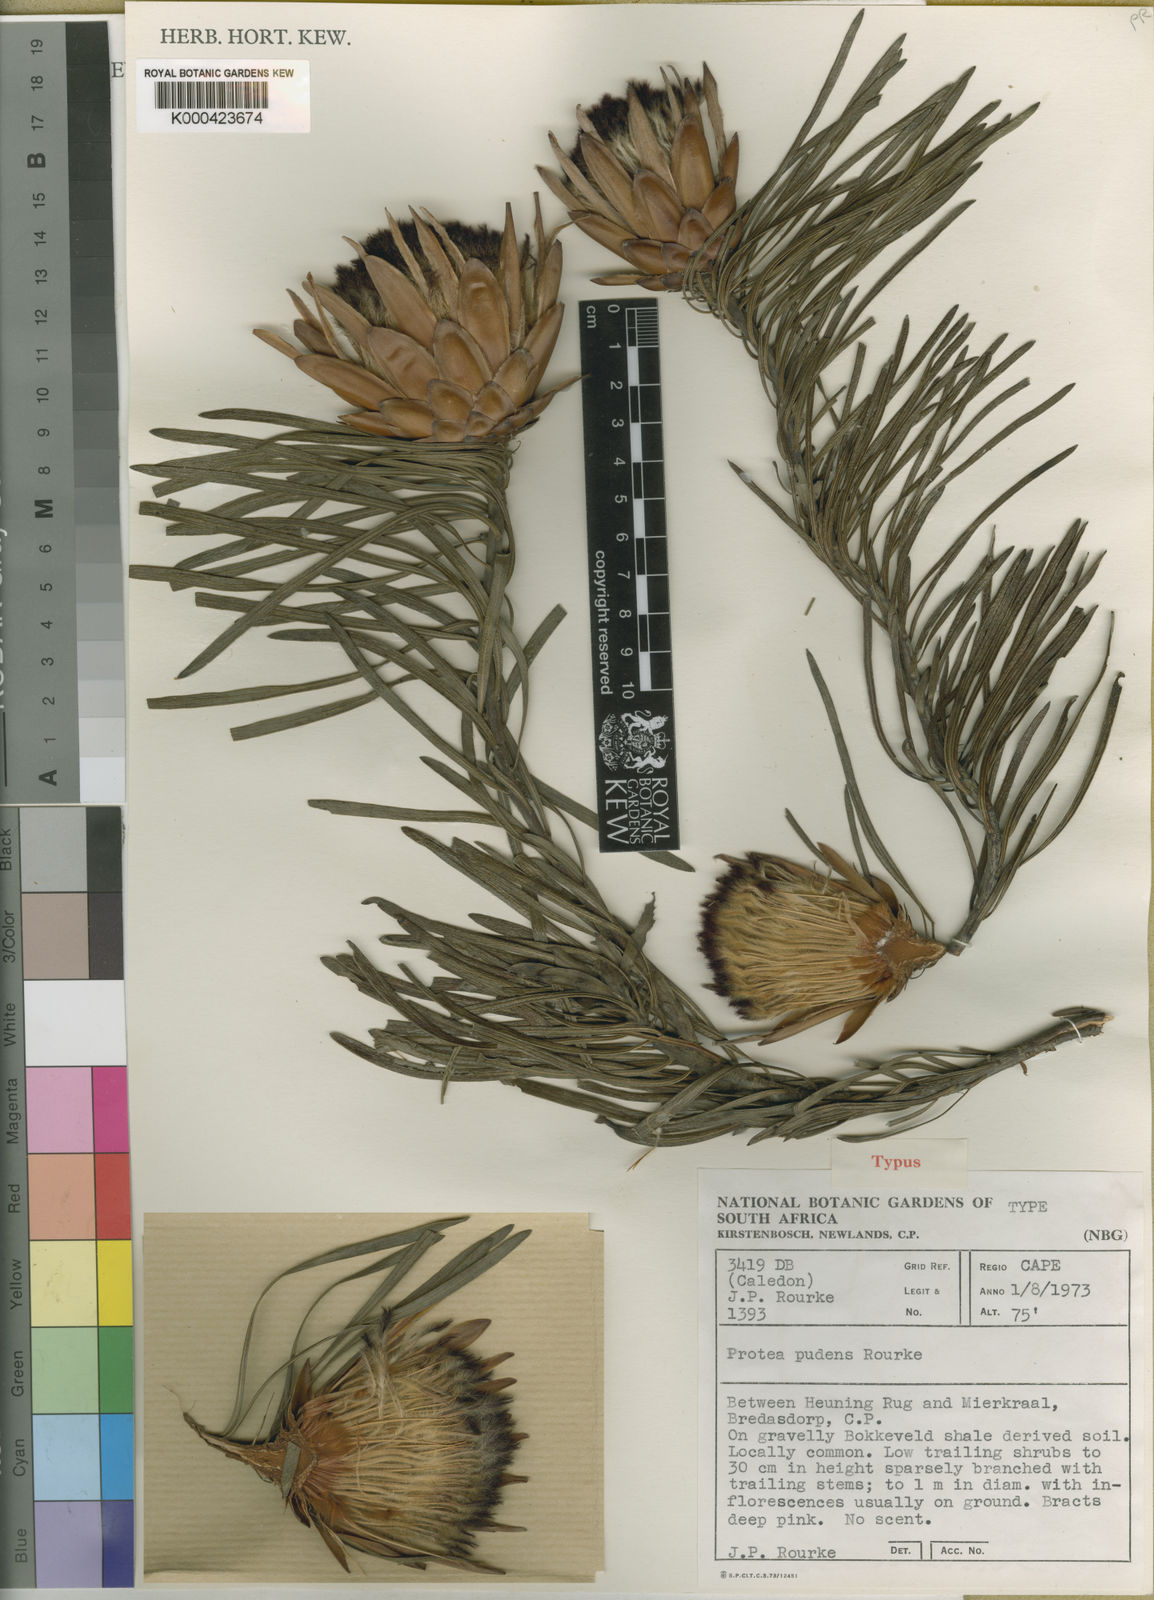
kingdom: Plantae
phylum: Tracheophyta
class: Magnoliopsida
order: Proteales
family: Proteaceae
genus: Protea
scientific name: Protea pudens
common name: Bashful sugarbush
